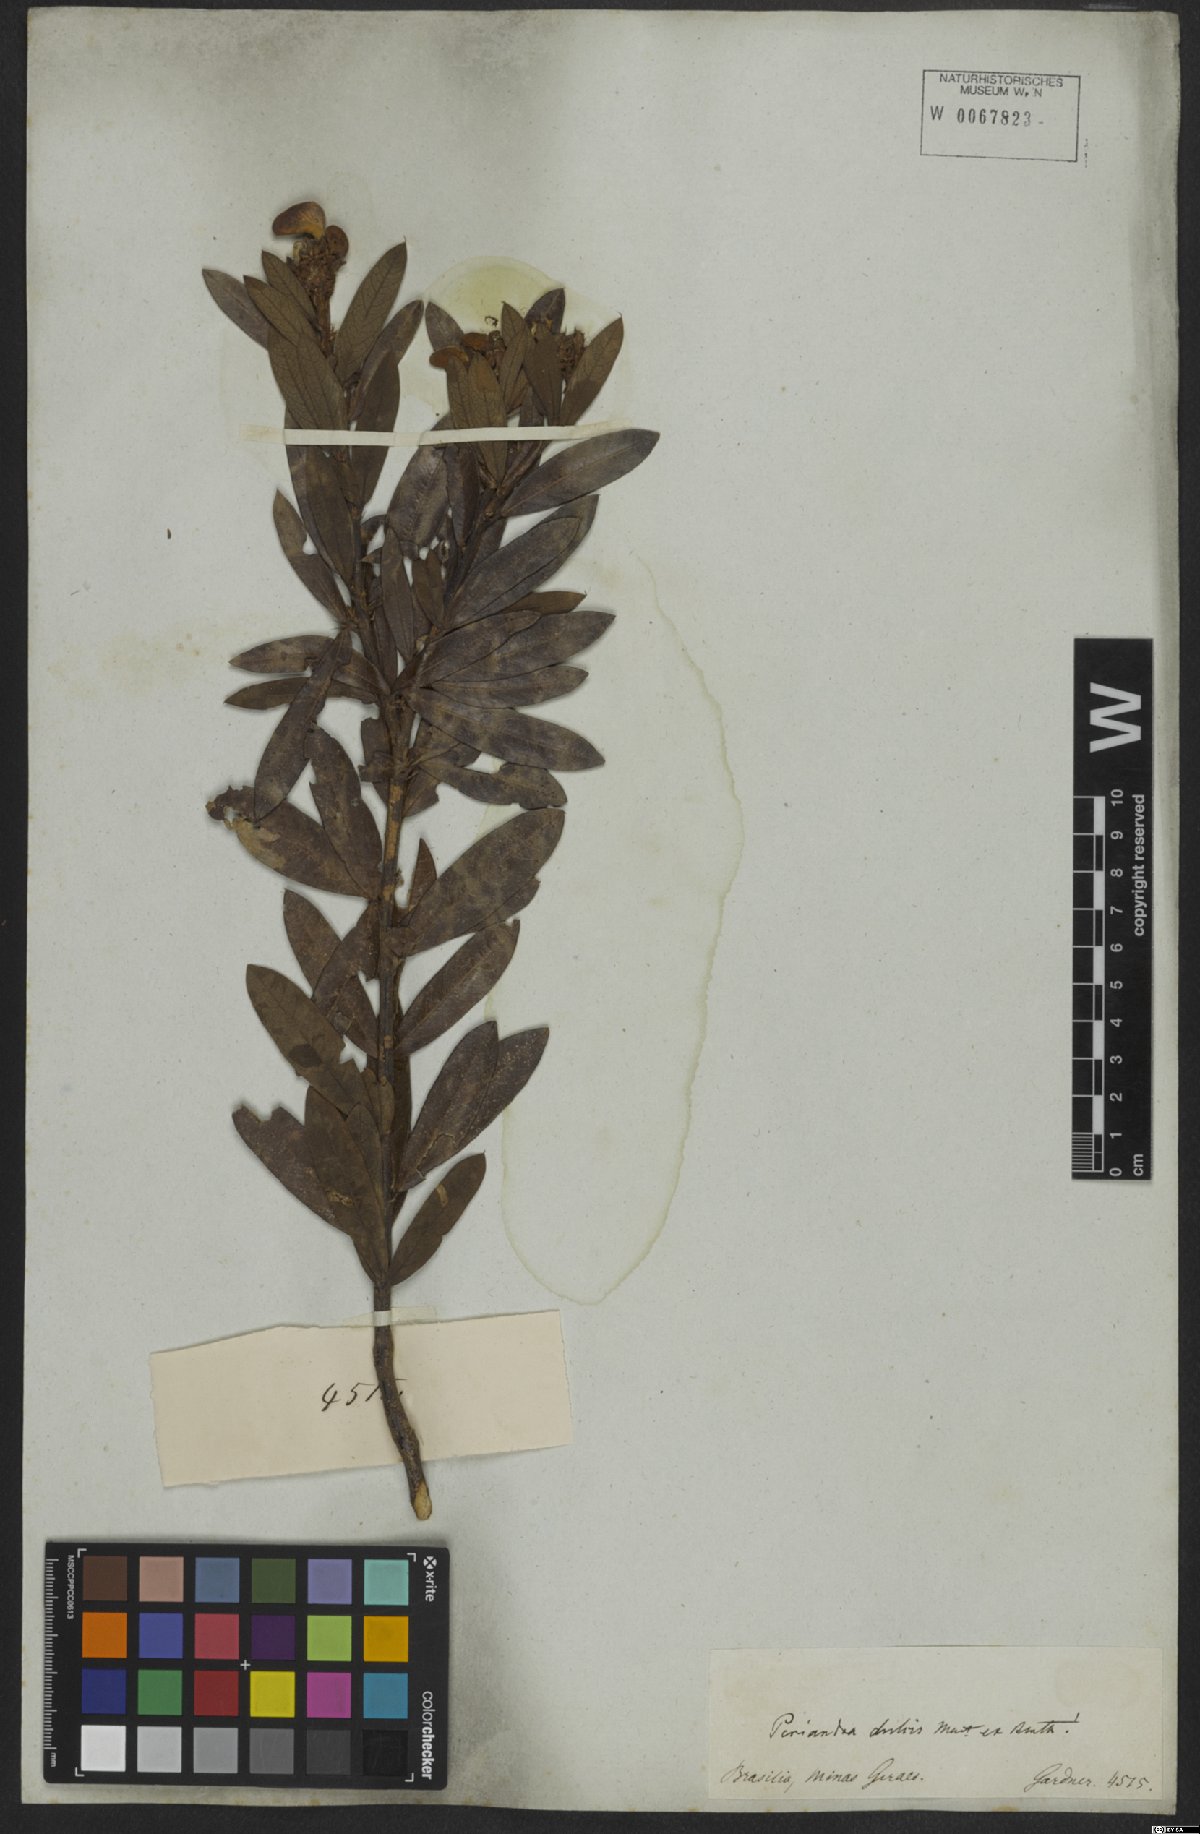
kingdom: Plantae
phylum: Tracheophyta
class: Magnoliopsida
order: Fabales
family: Fabaceae
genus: Periandra
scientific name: Periandra mediterranea
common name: Brazilian licorice
